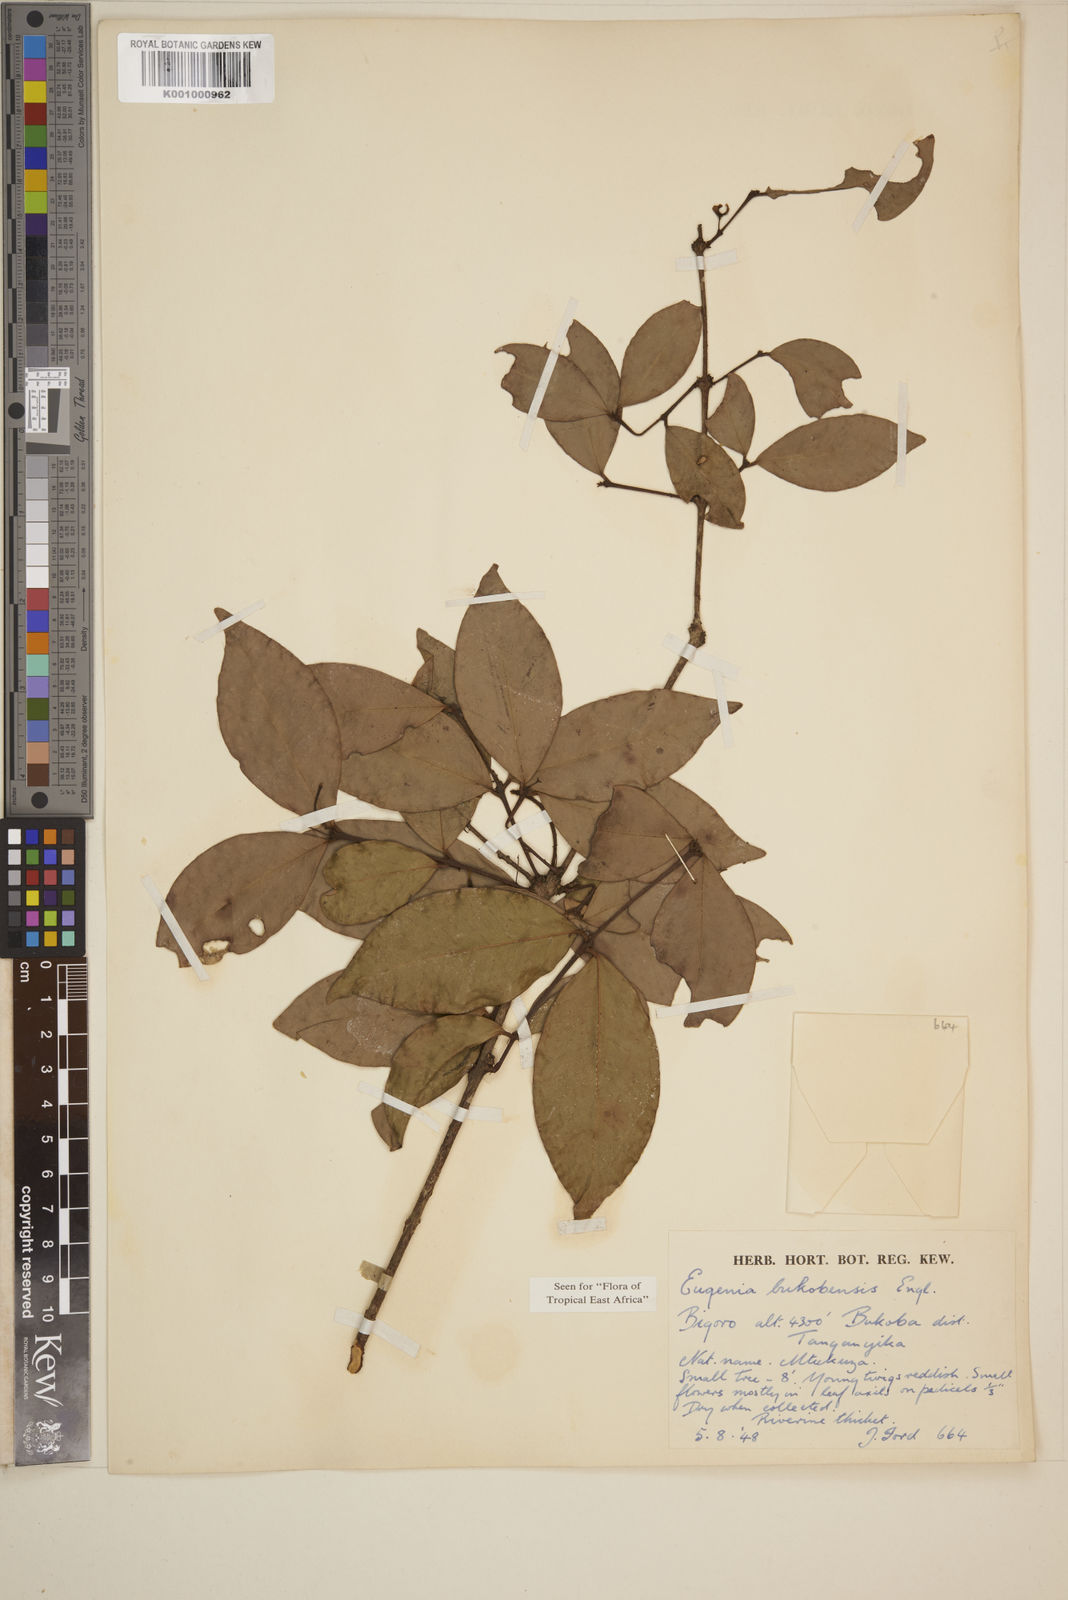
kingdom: Plantae
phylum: Tracheophyta
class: Magnoliopsida
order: Myrtales
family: Myrtaceae
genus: Eugenia
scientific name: Eugenia bukobensis
